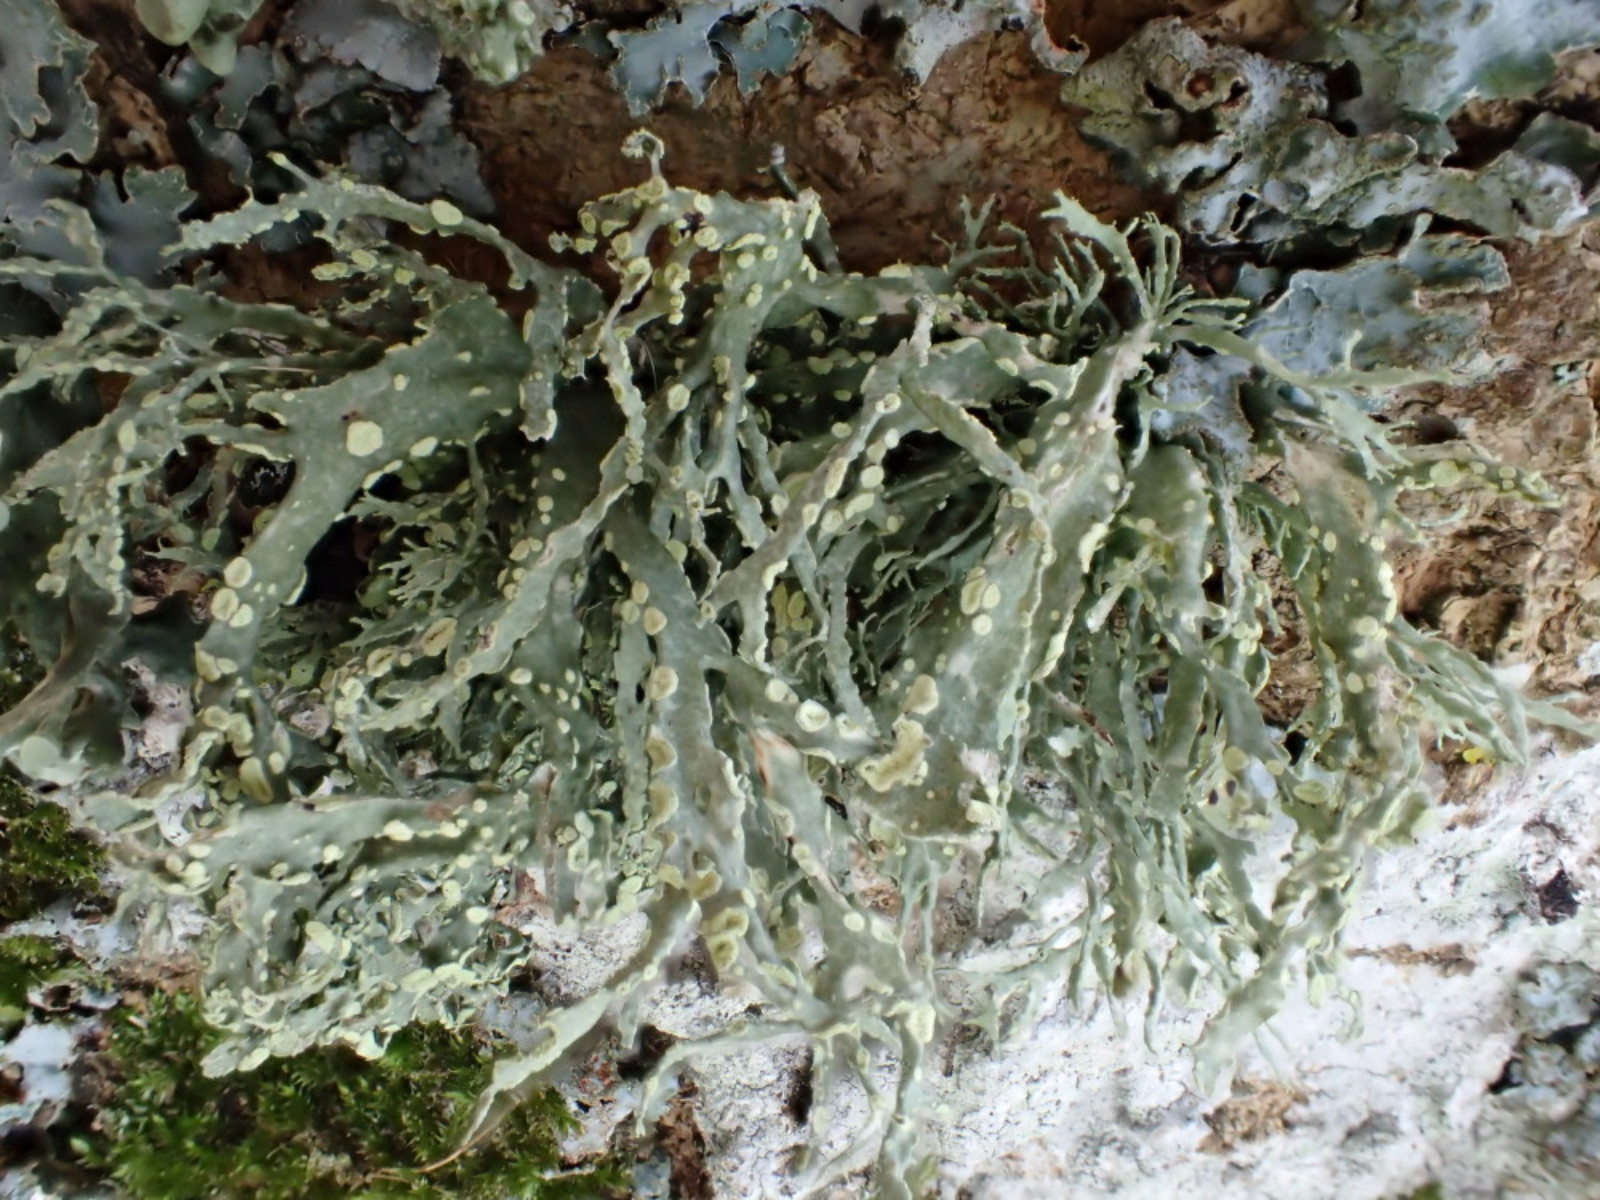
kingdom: Fungi
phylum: Ascomycota
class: Lecanoromycetes
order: Lecanorales
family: Ramalinaceae
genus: Ramalina
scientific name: Ramalina farinacea
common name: melet grenlav
